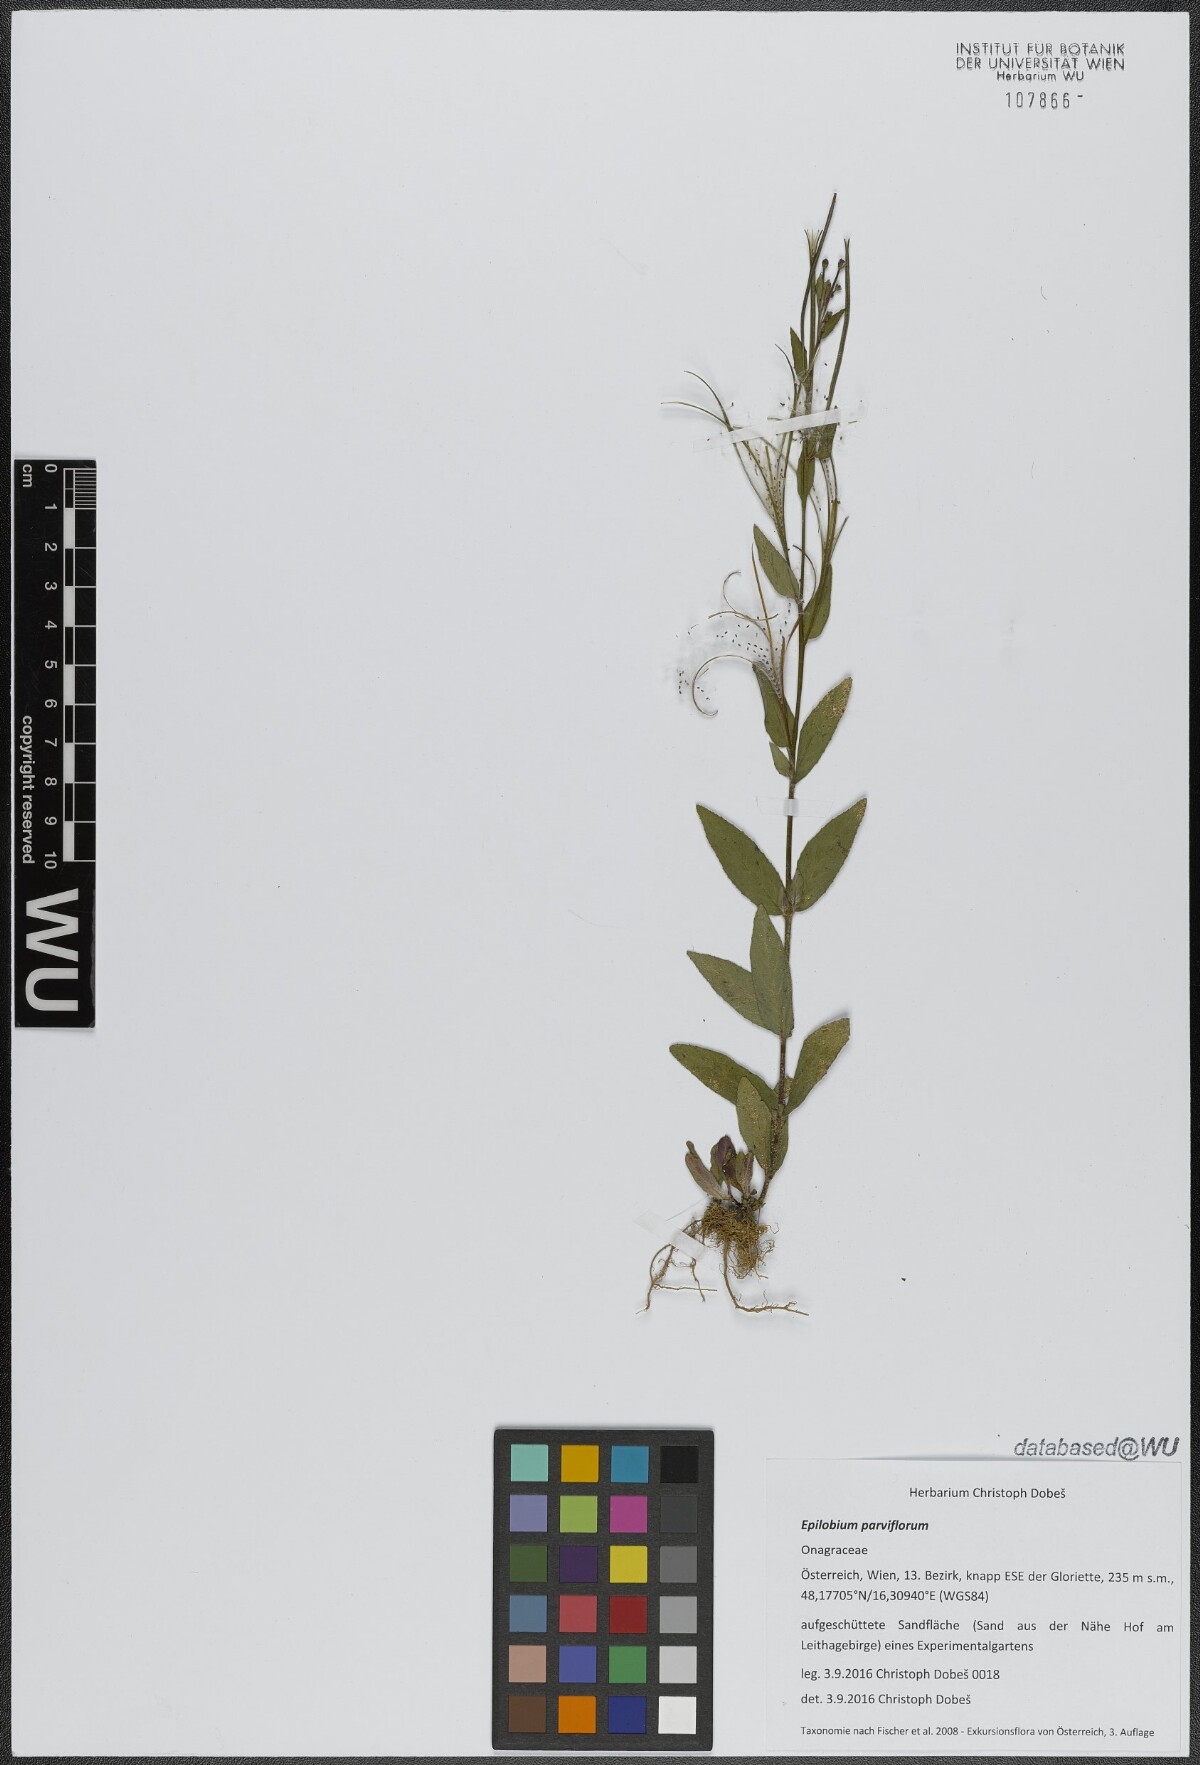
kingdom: Plantae
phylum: Tracheophyta
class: Magnoliopsida
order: Myrtales
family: Onagraceae
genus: Epilobium
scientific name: Epilobium parviflorum
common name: Hoary willowherb
